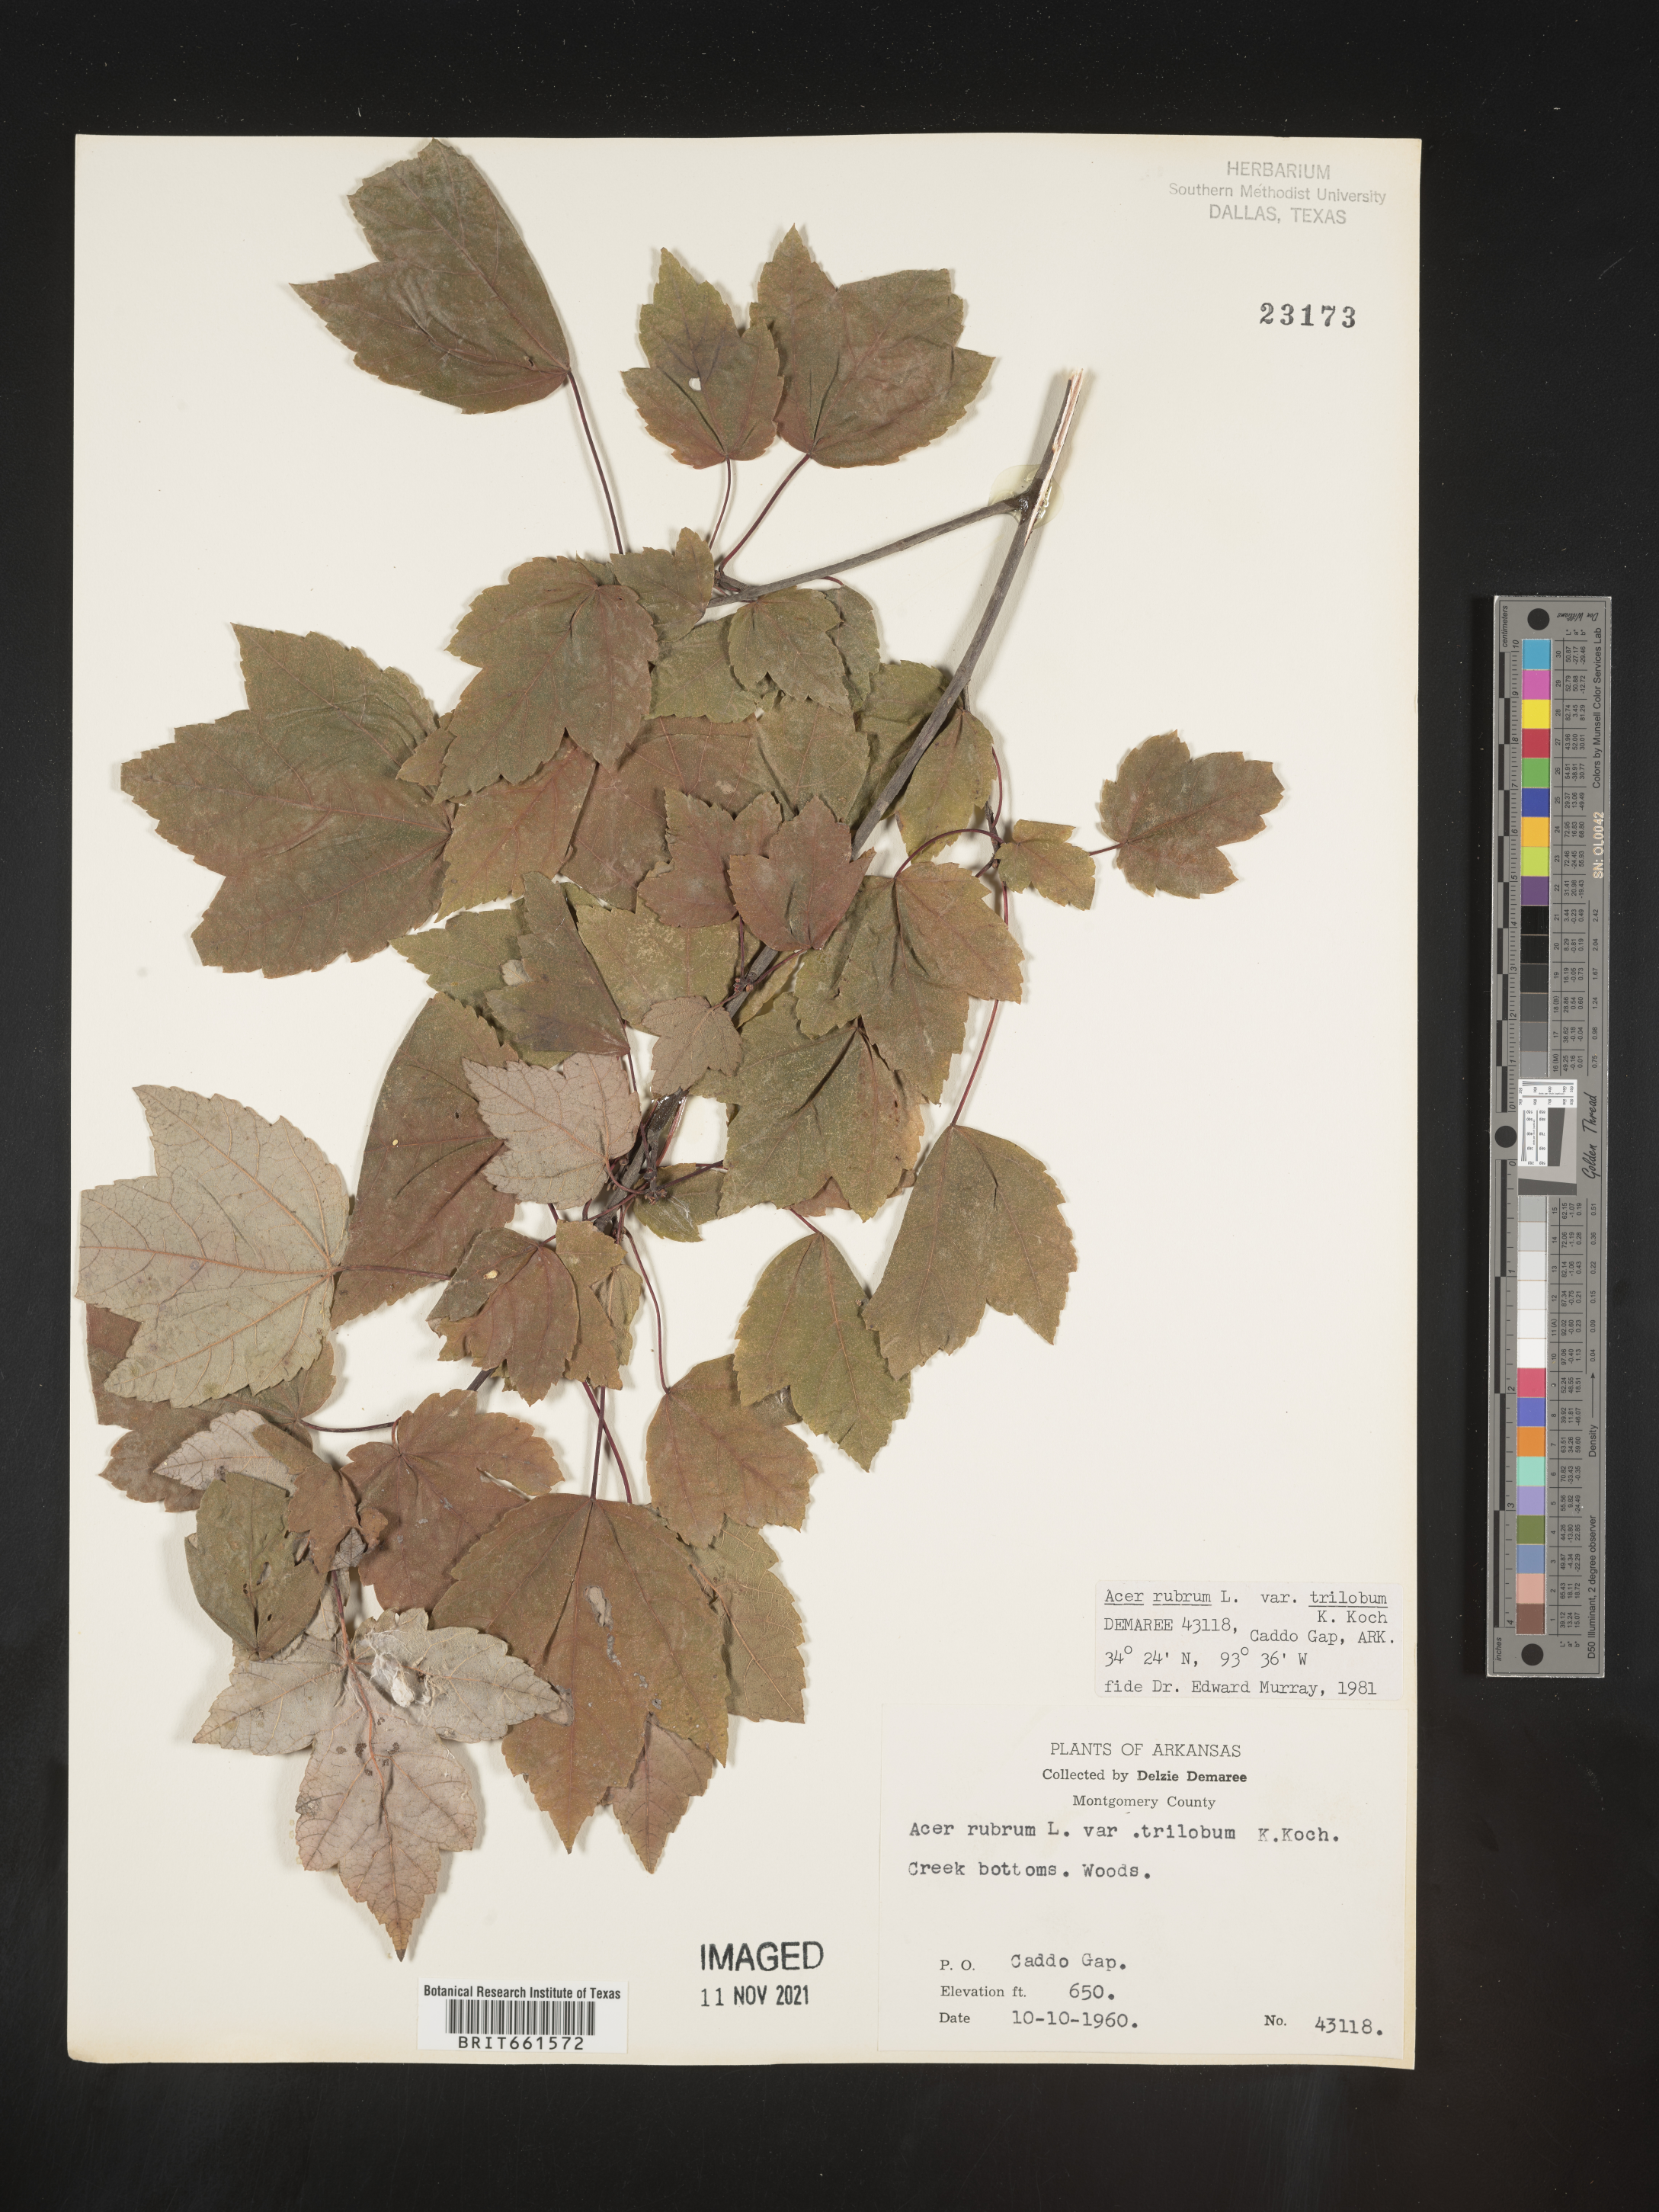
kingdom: Plantae
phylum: Tracheophyta
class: Magnoliopsida
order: Sapindales
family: Sapindaceae
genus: Acer
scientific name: Acer rubrum
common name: Red maple
